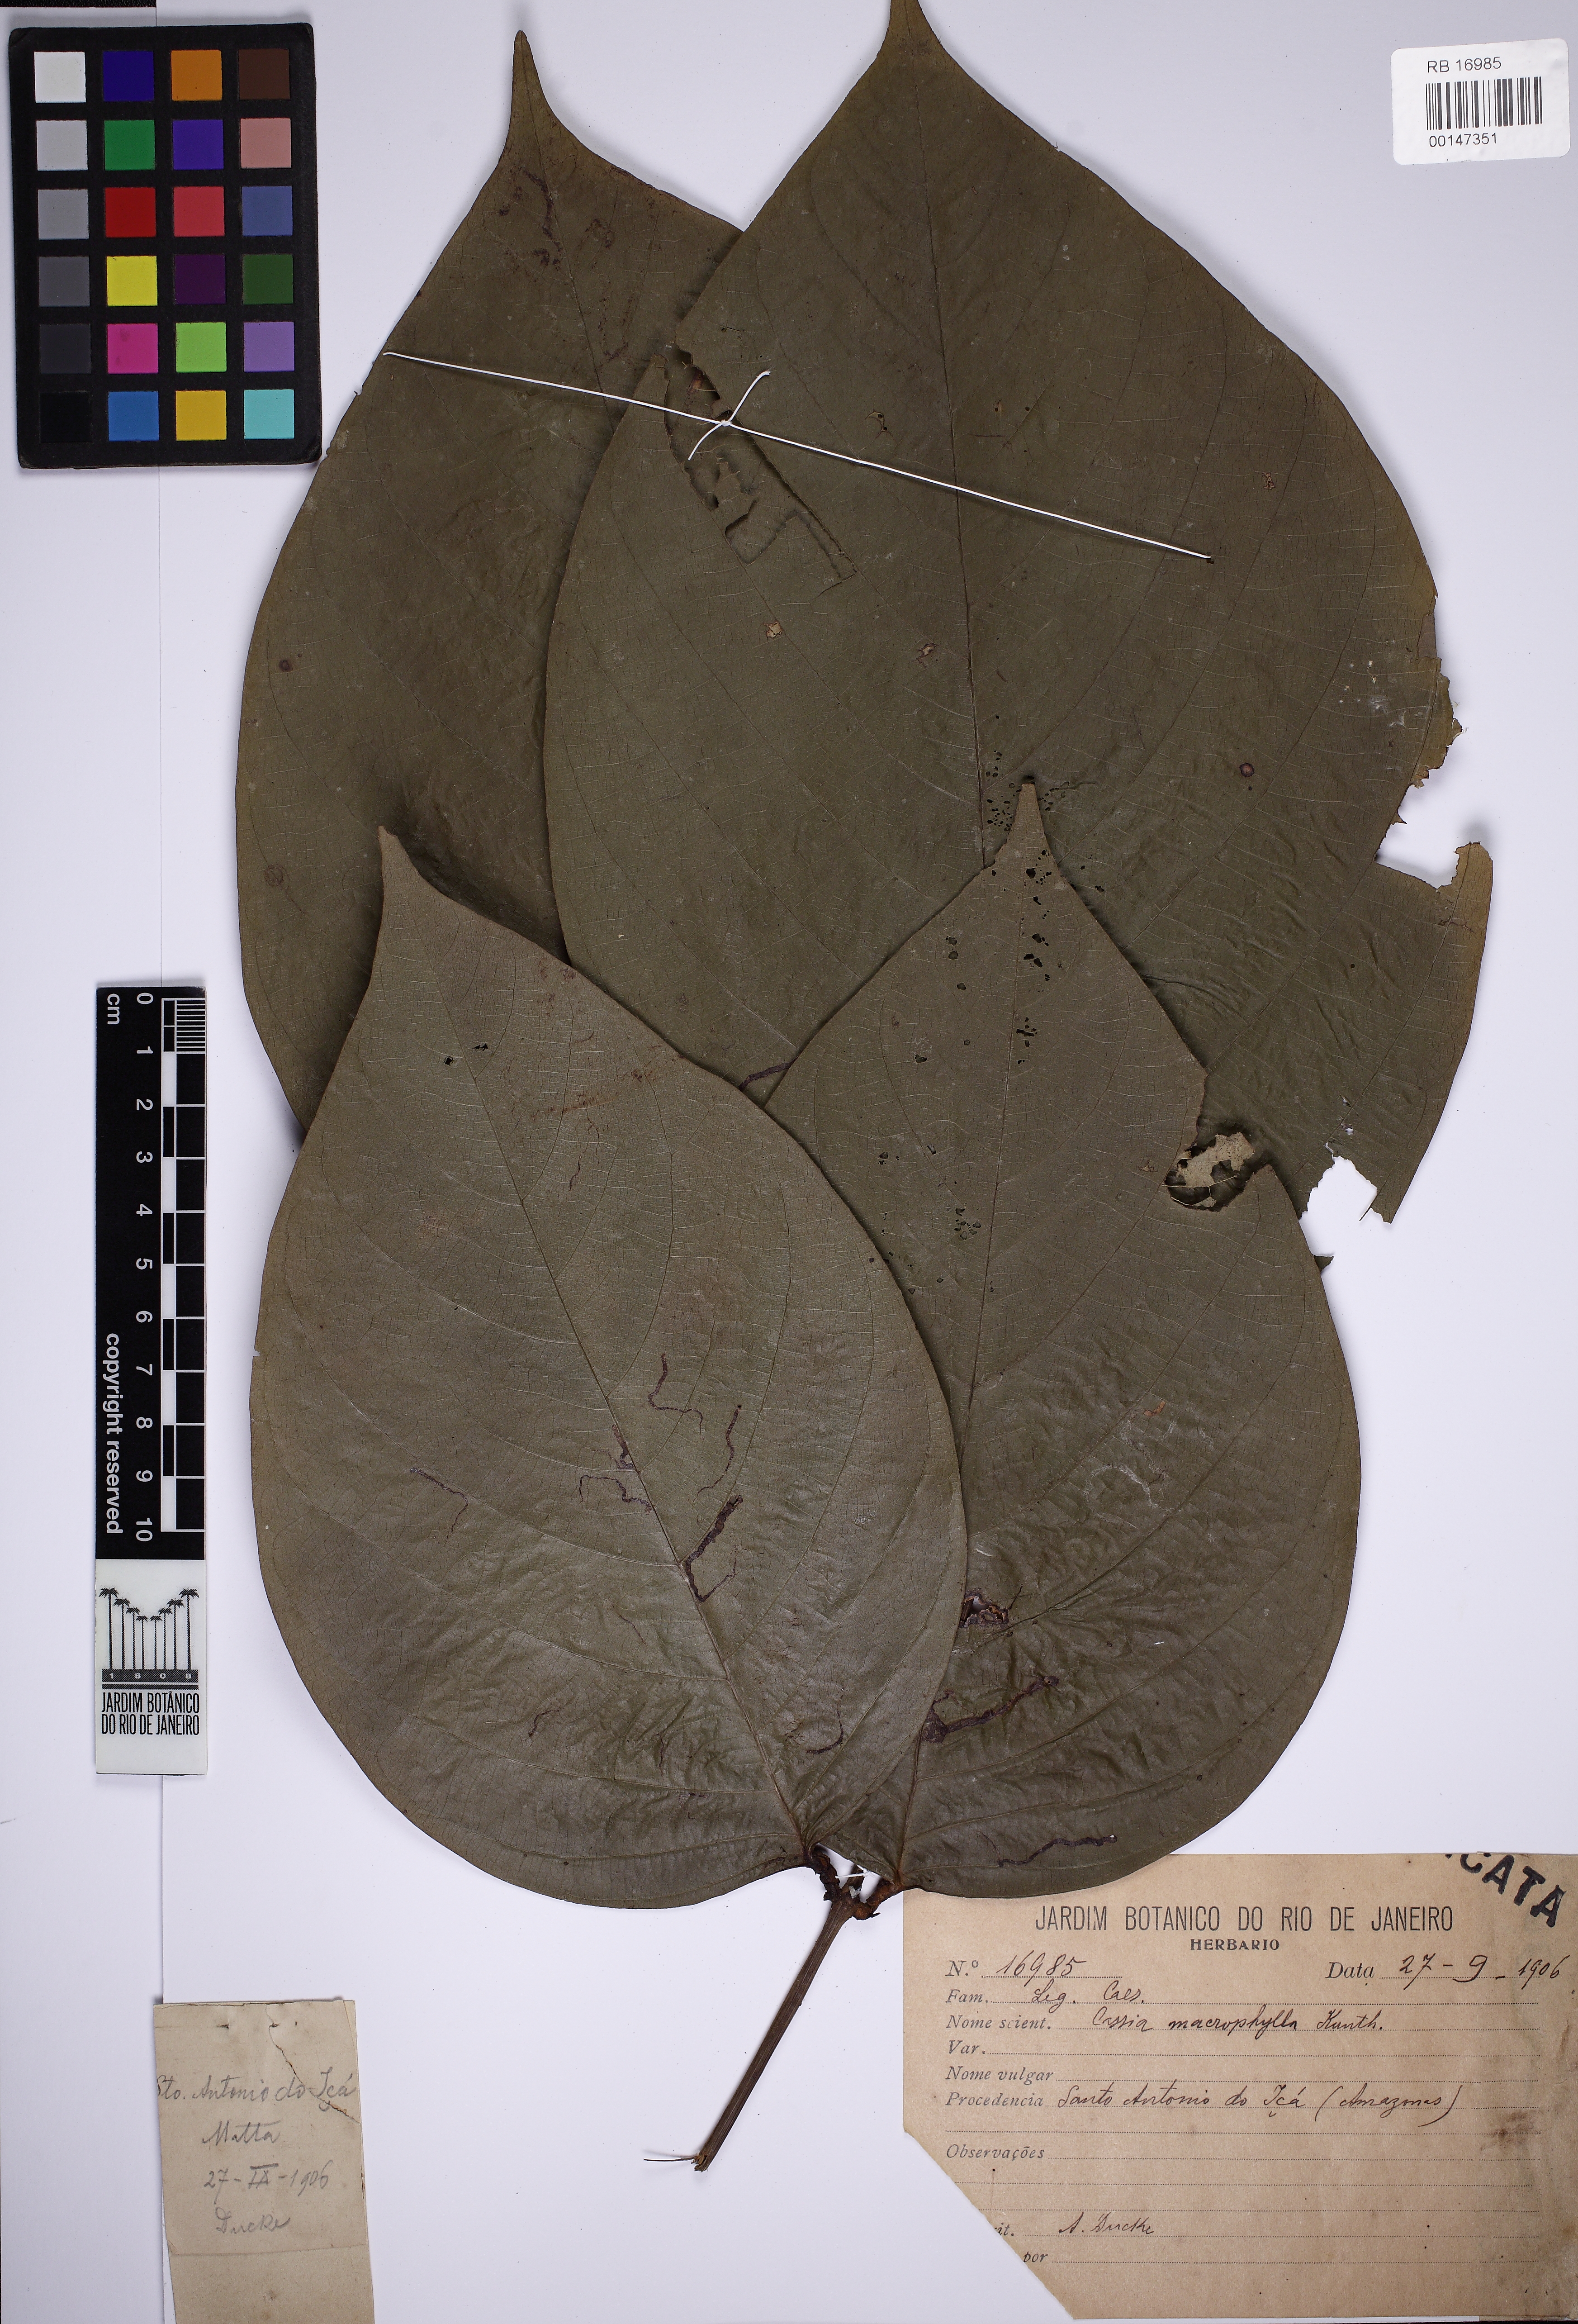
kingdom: Plantae
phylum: Tracheophyta
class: Magnoliopsida
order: Fabales
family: Fabaceae
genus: Senna
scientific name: Senna macrophylla
